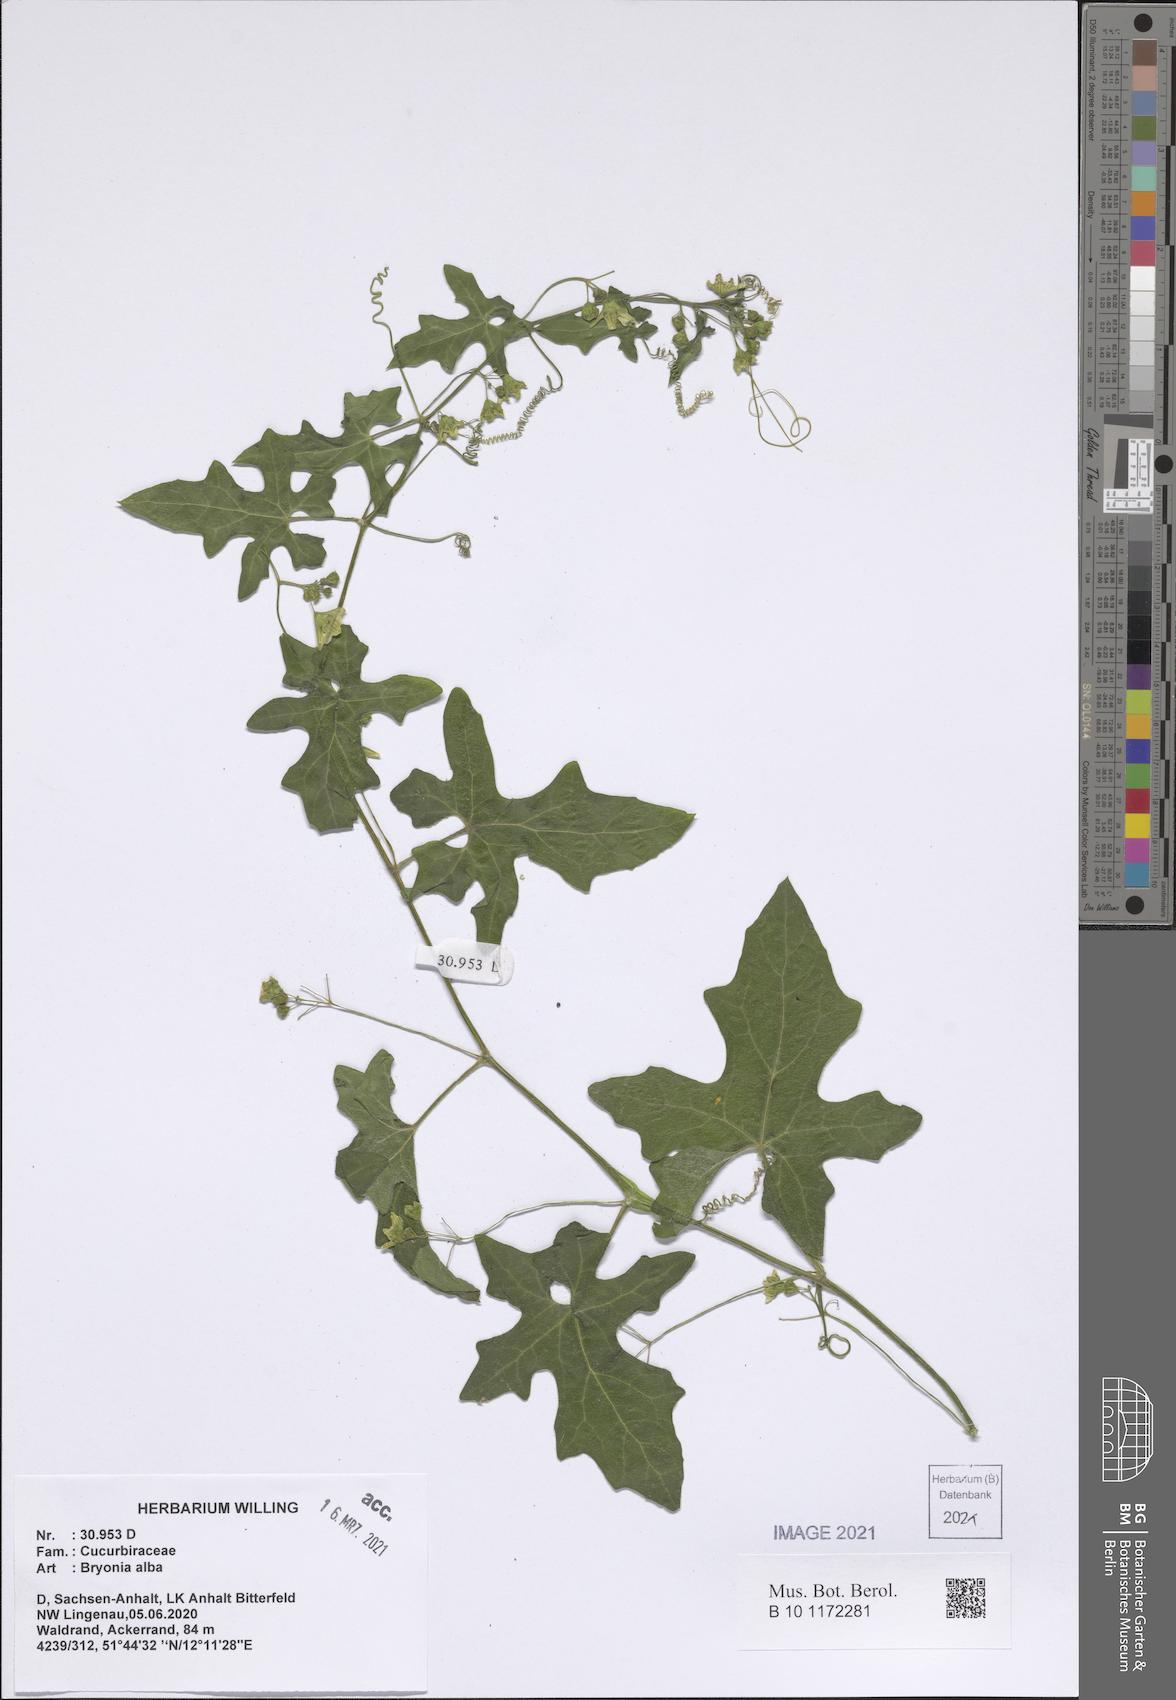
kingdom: Plantae
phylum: Tracheophyta
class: Magnoliopsida
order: Cucurbitales
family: Cucurbitaceae
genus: Bryonia
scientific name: Bryonia alba
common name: White bryony
